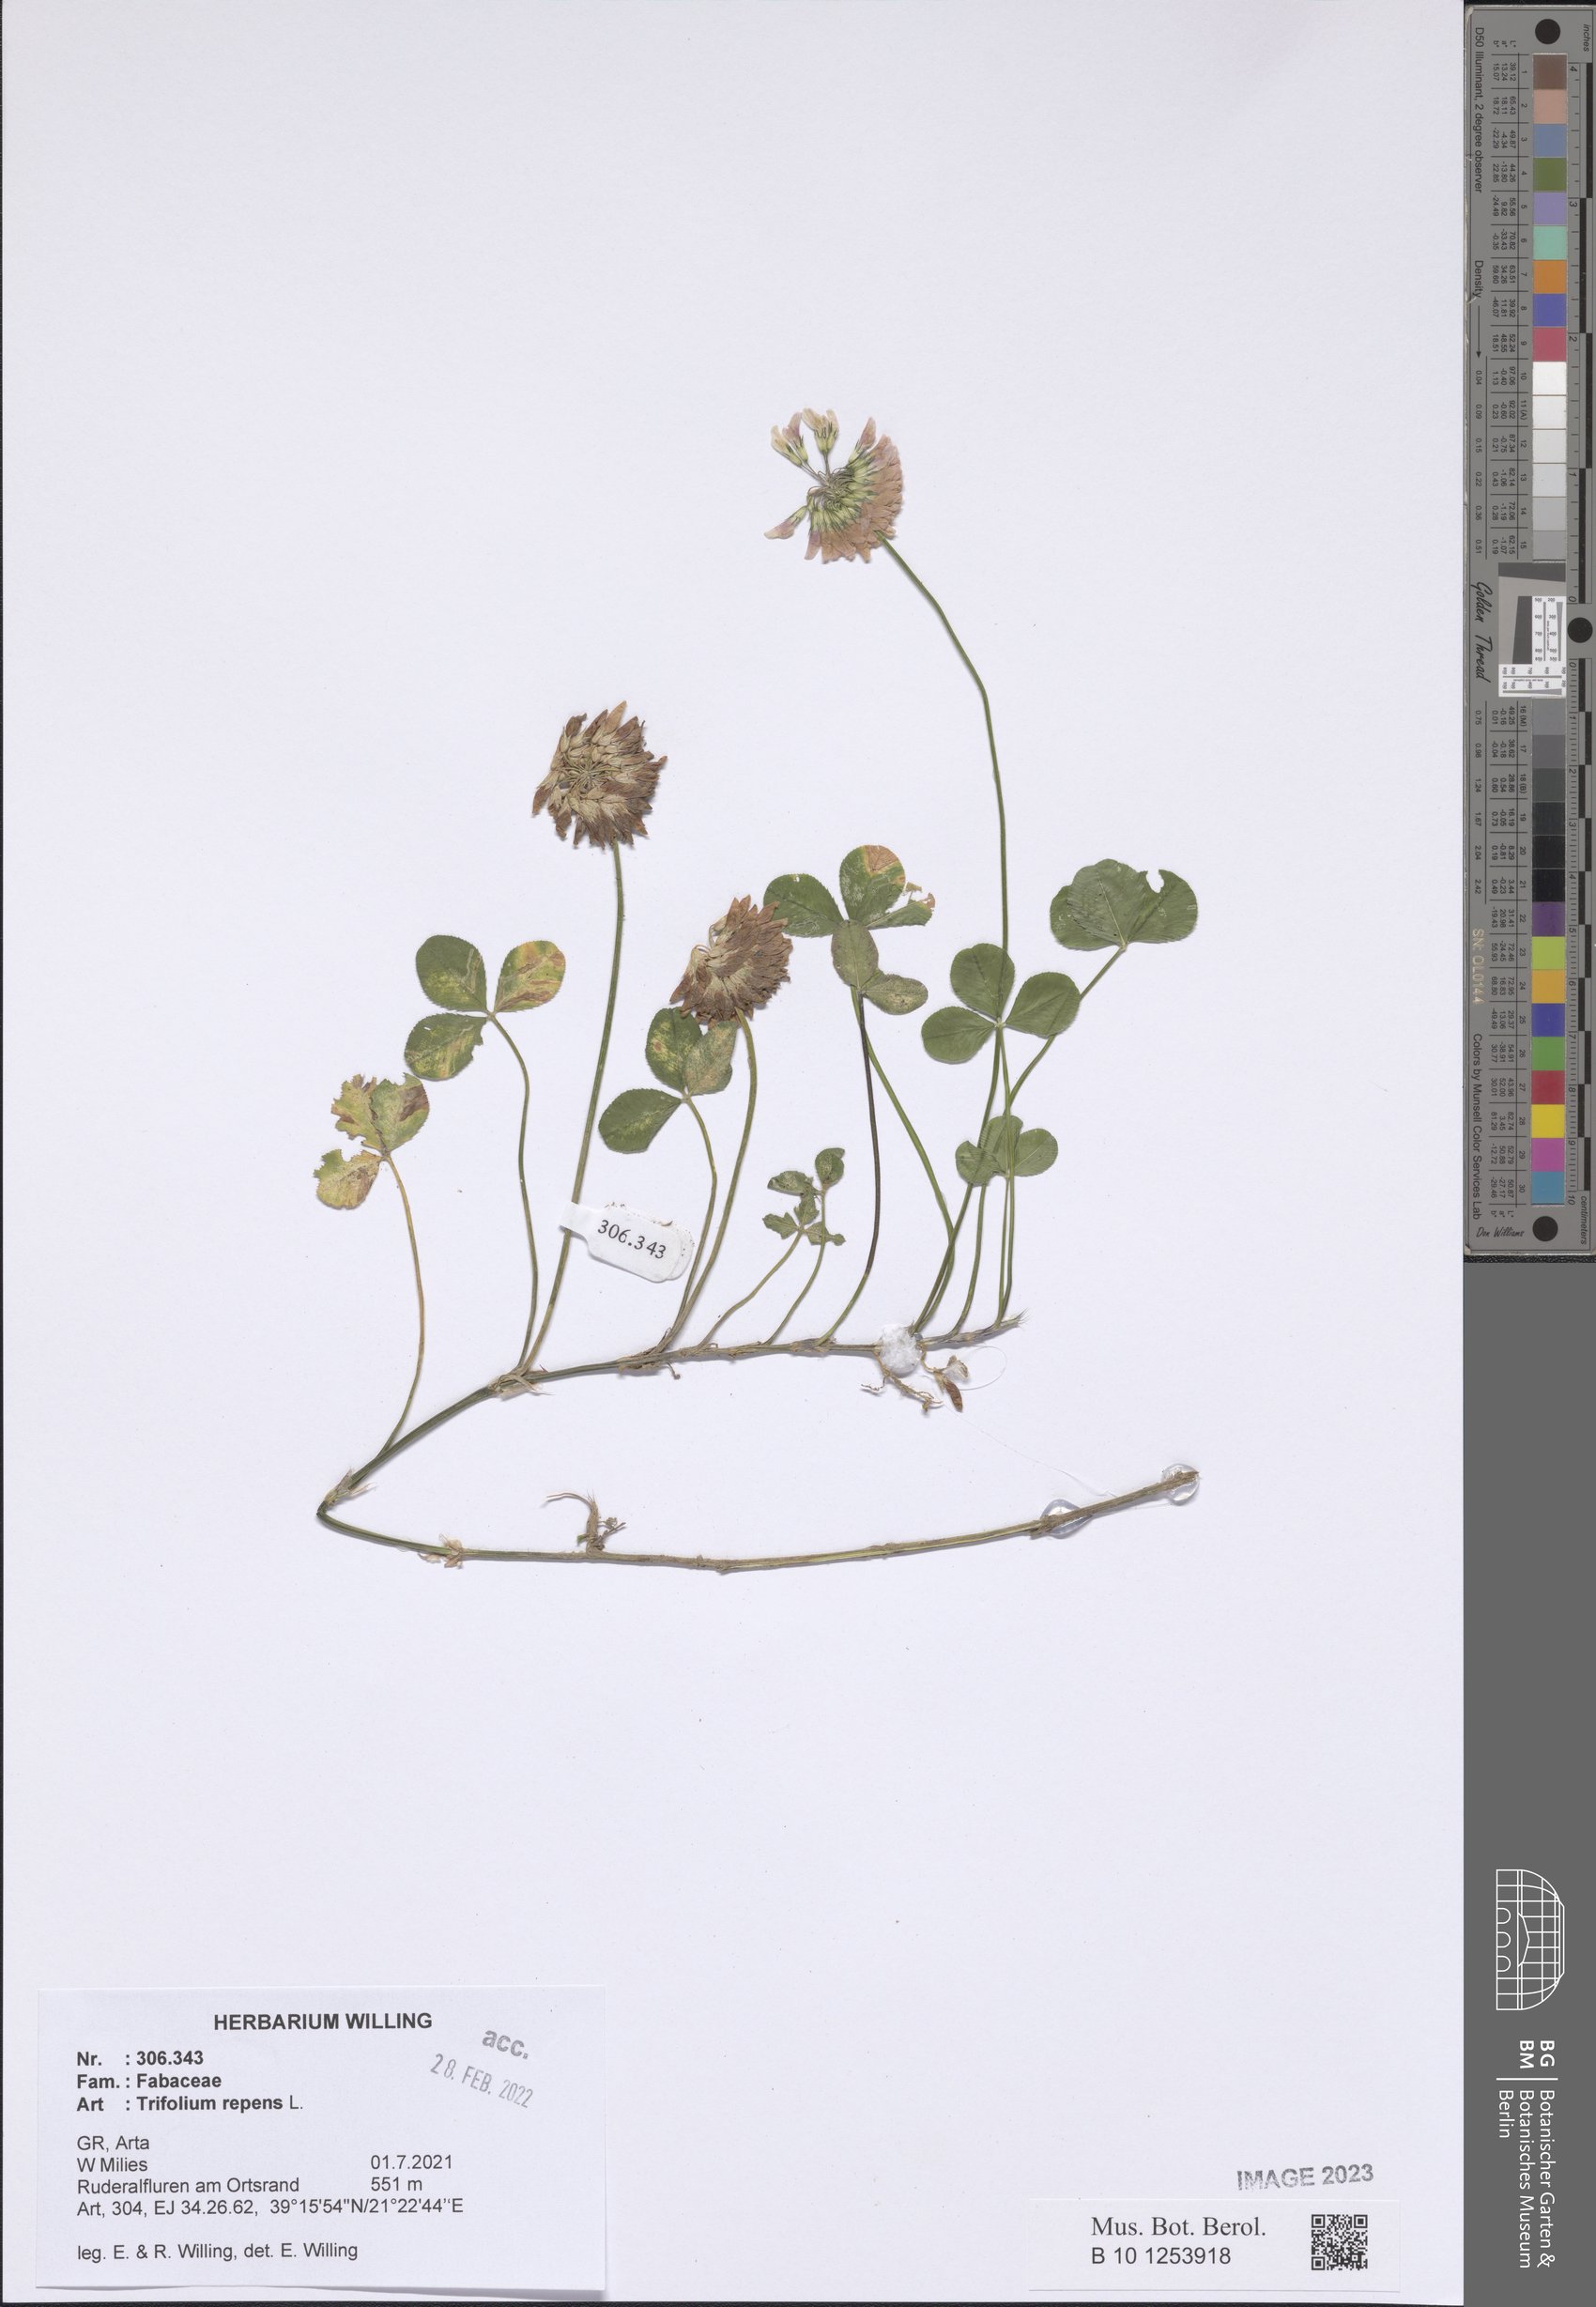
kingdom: Plantae
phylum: Tracheophyta
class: Magnoliopsida
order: Fabales
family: Fabaceae
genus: Trifolium
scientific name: Trifolium repens
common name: White clover
